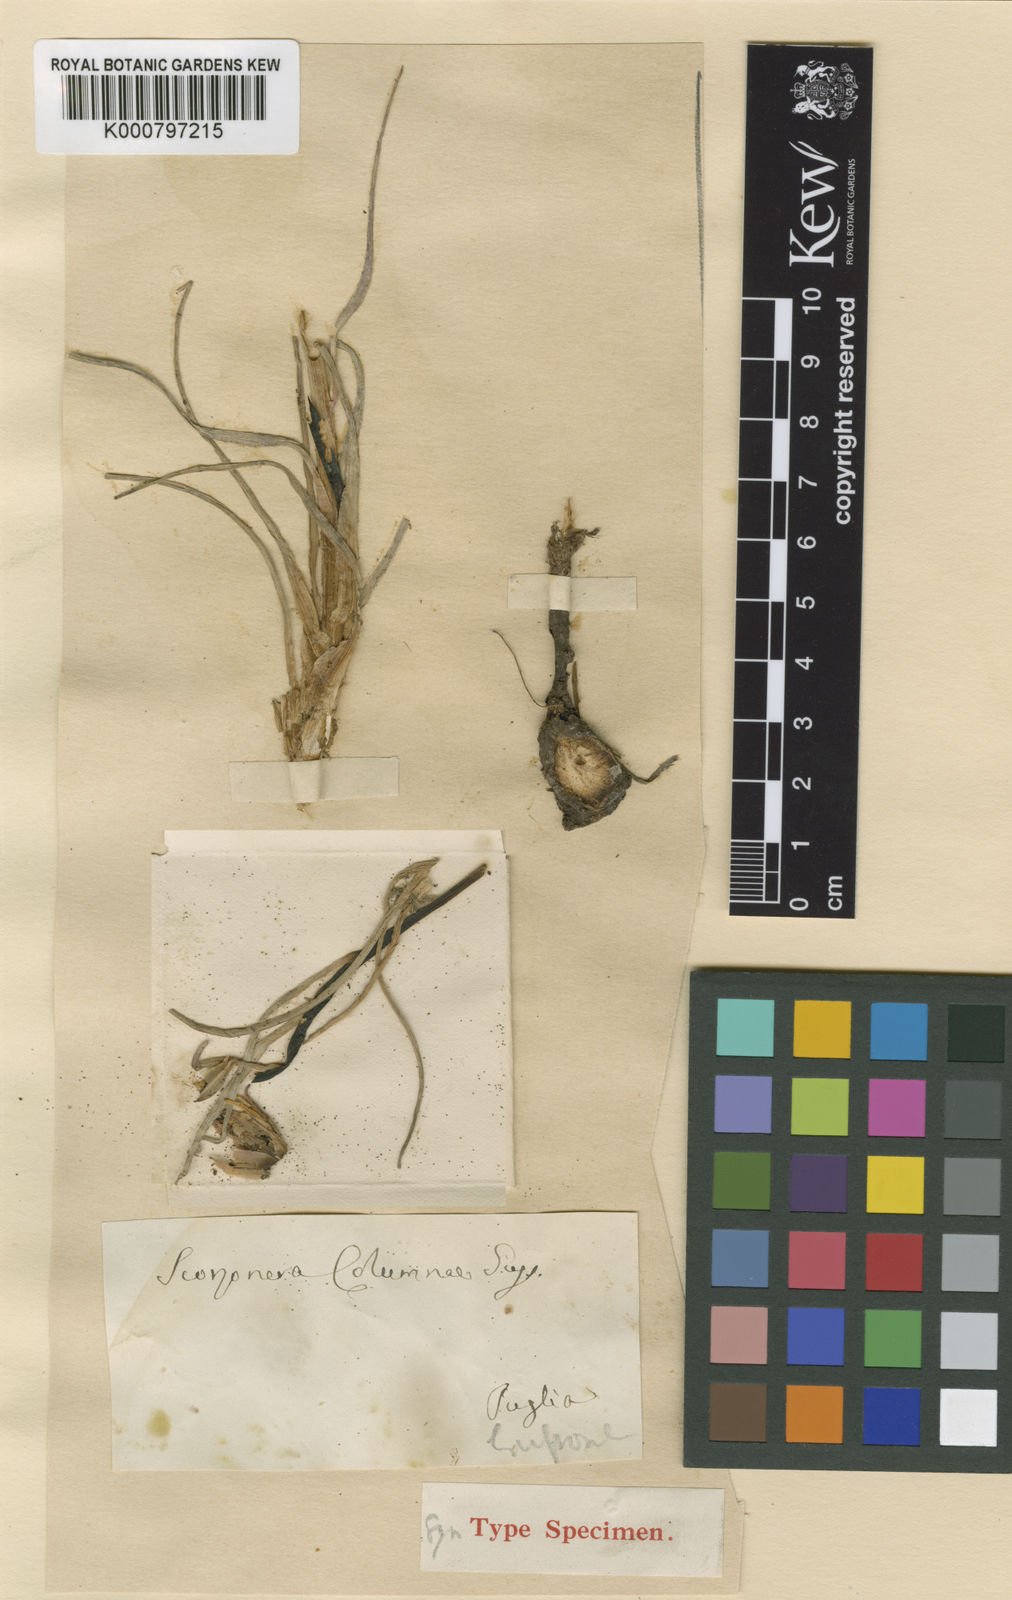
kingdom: Plantae
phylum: Tracheophyta
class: Magnoliopsida
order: Asterales
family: Asteraceae
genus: Gelasia
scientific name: Gelasia villosa
